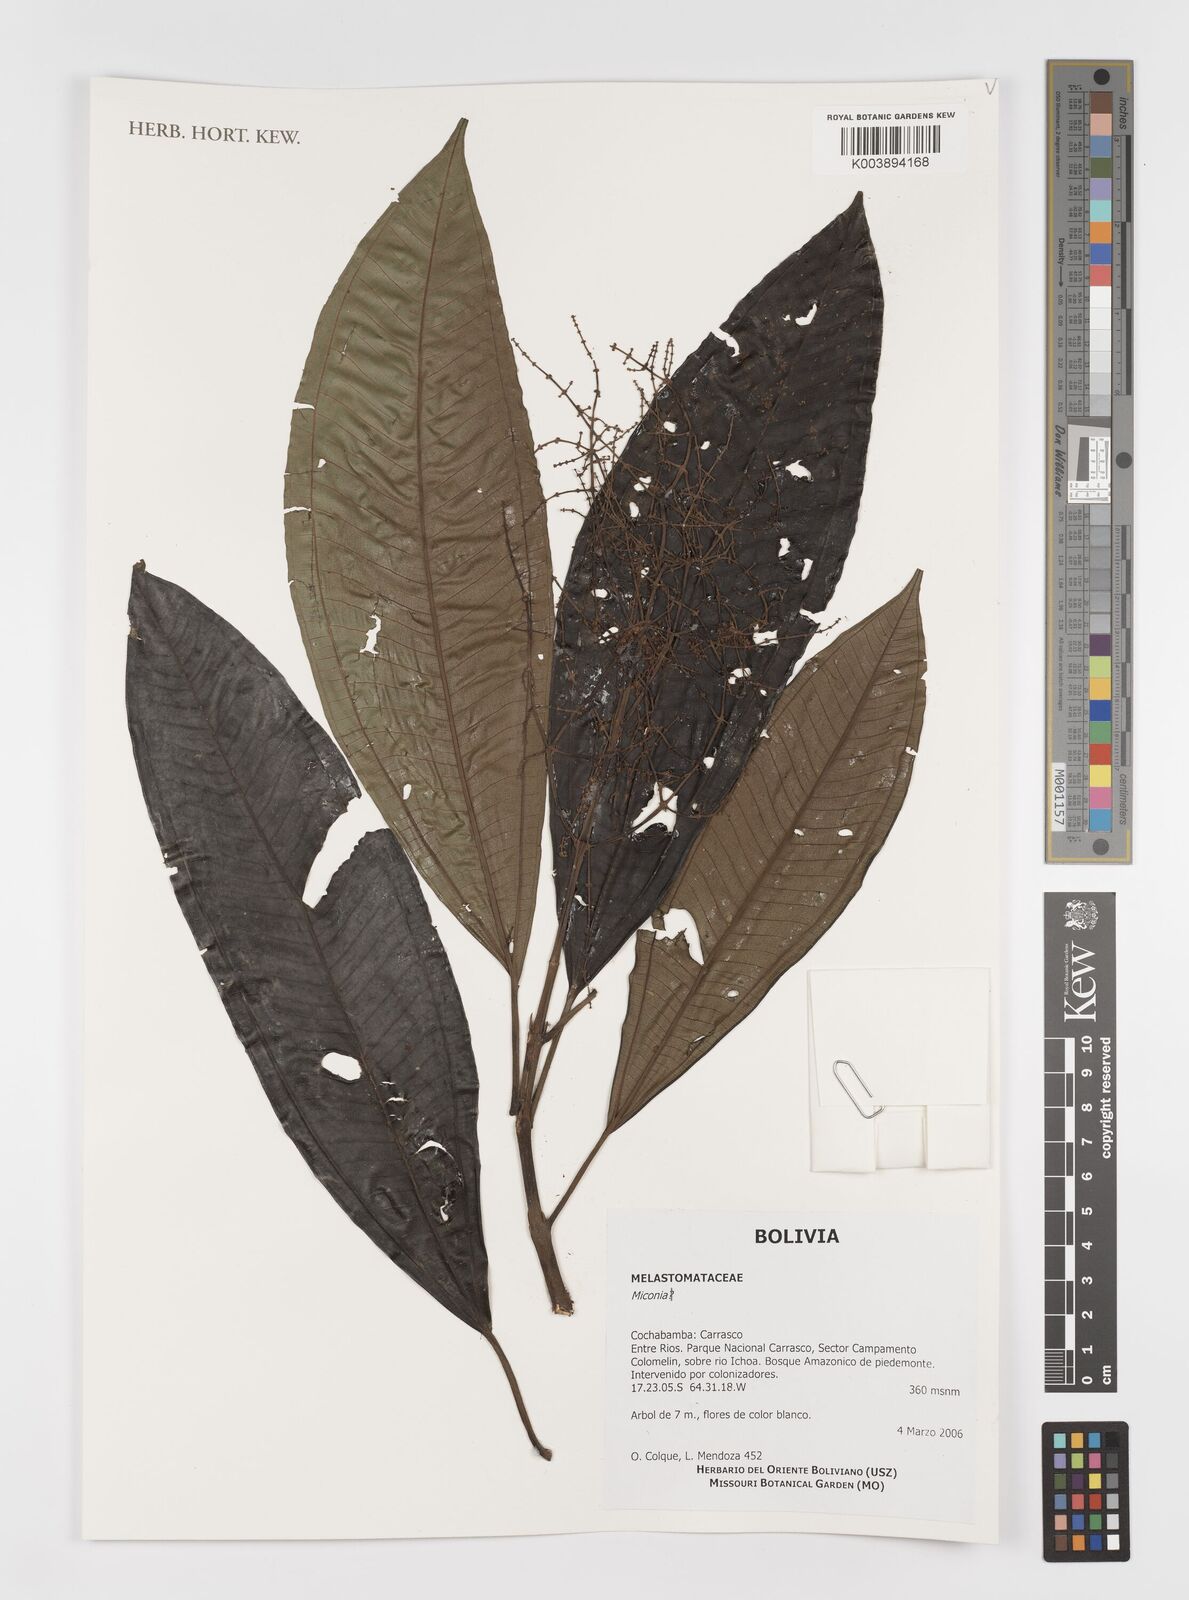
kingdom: Plantae
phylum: Tracheophyta
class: Magnoliopsida
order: Myrtales
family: Melastomataceae
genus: Miconia
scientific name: Miconia
